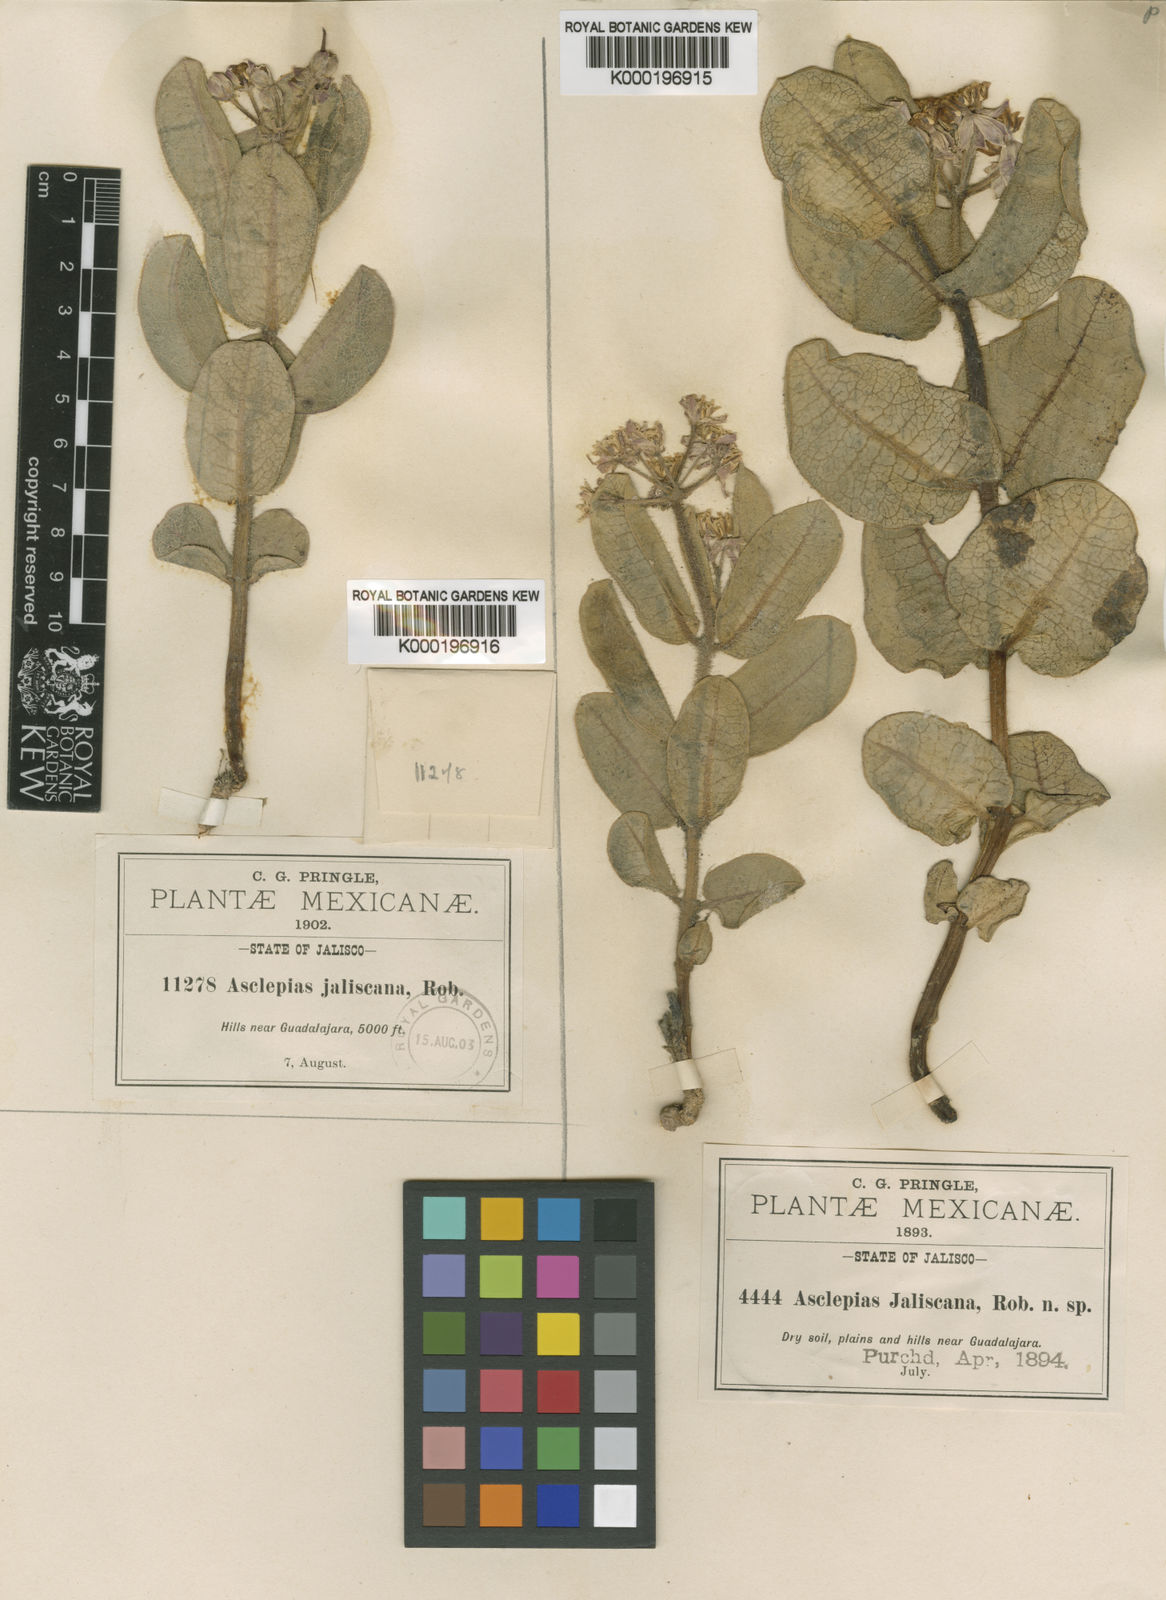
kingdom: Plantae
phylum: Tracheophyta
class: Magnoliopsida
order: Gentianales
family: Apocynaceae
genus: Asclepias
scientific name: Asclepias
